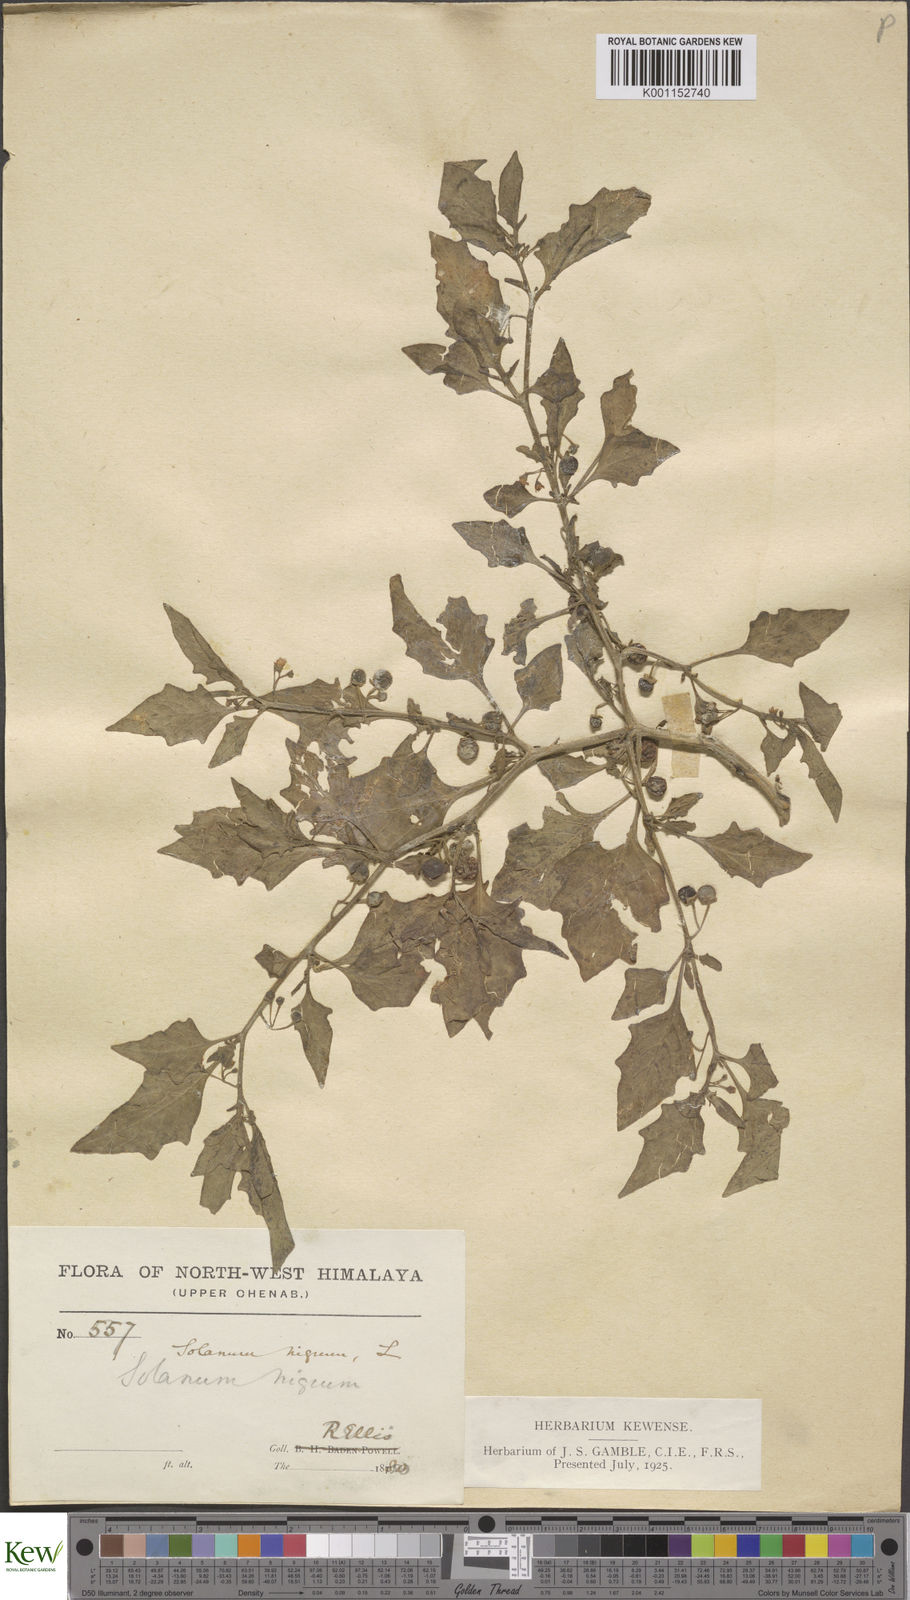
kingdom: Plantae
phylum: Tracheophyta
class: Magnoliopsida
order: Solanales
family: Solanaceae
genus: Solanum
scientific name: Solanum nigrum
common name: Black nightshade
